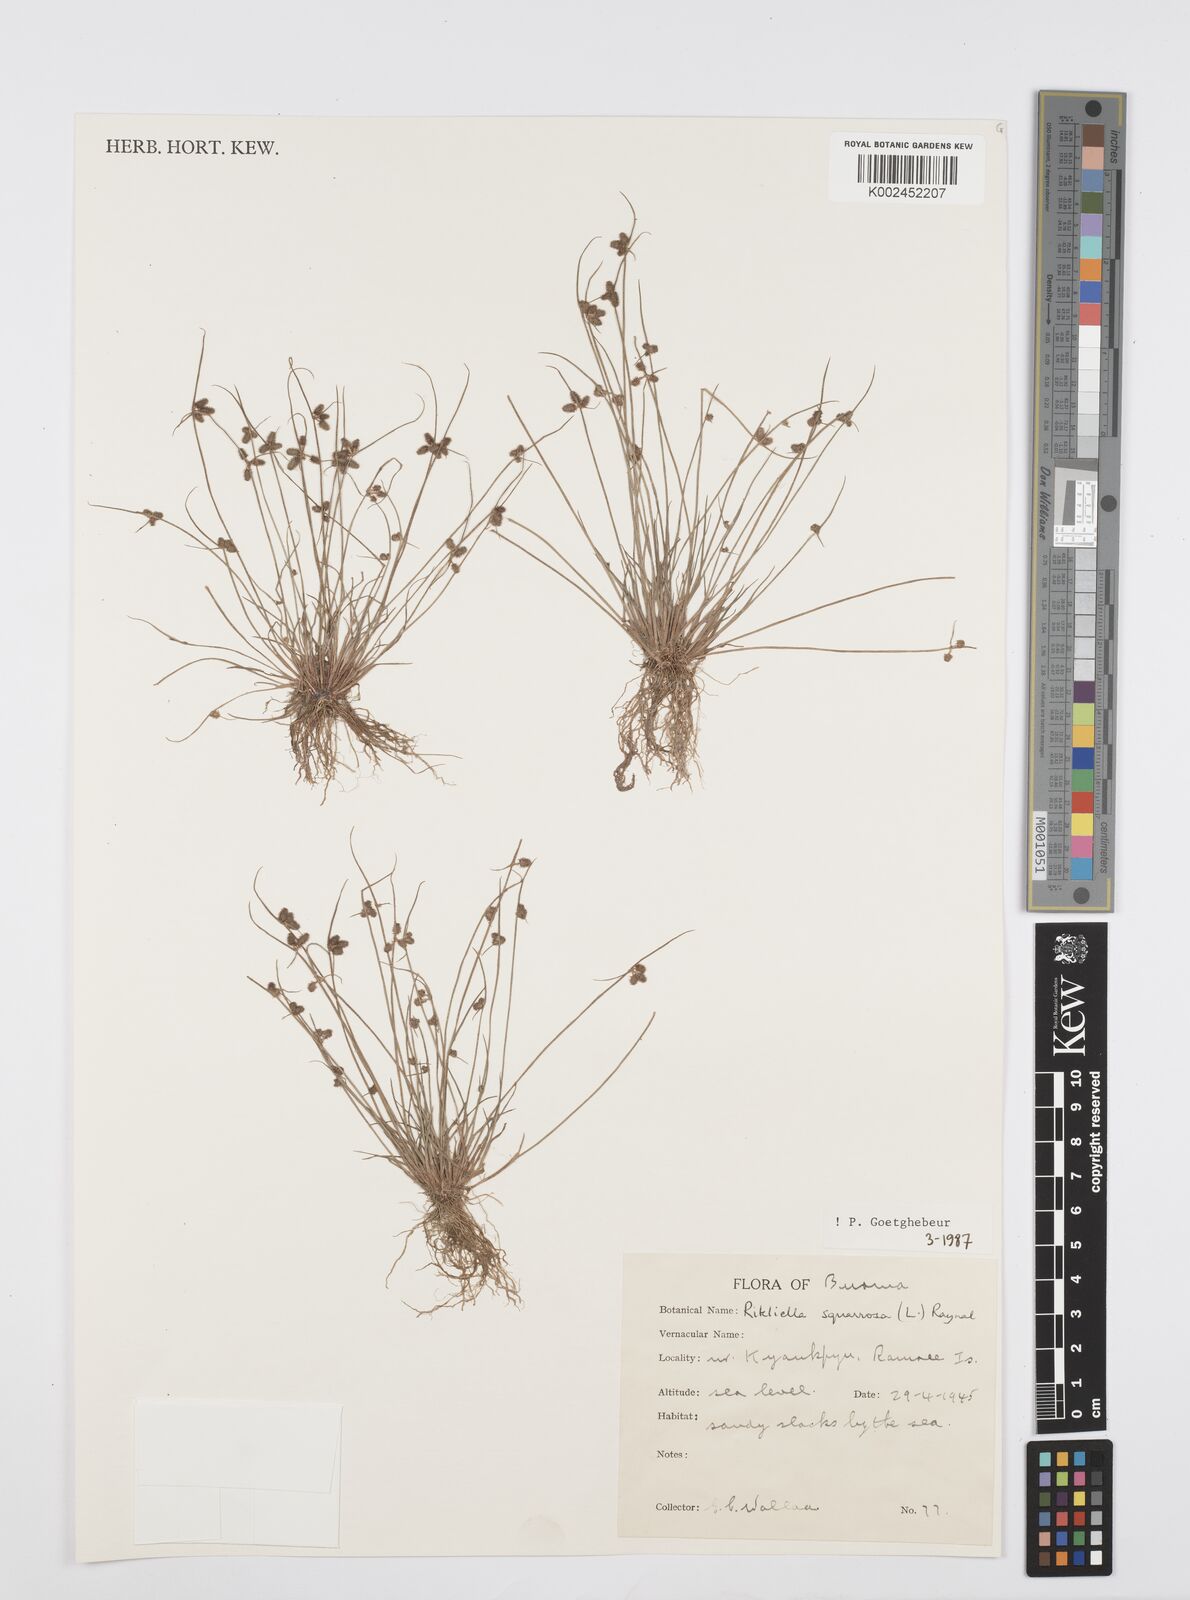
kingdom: Plantae
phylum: Tracheophyta
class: Liliopsida
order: Poales
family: Cyperaceae
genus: Cyperus
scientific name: Cyperus squarrosus
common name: Awned cyperus
